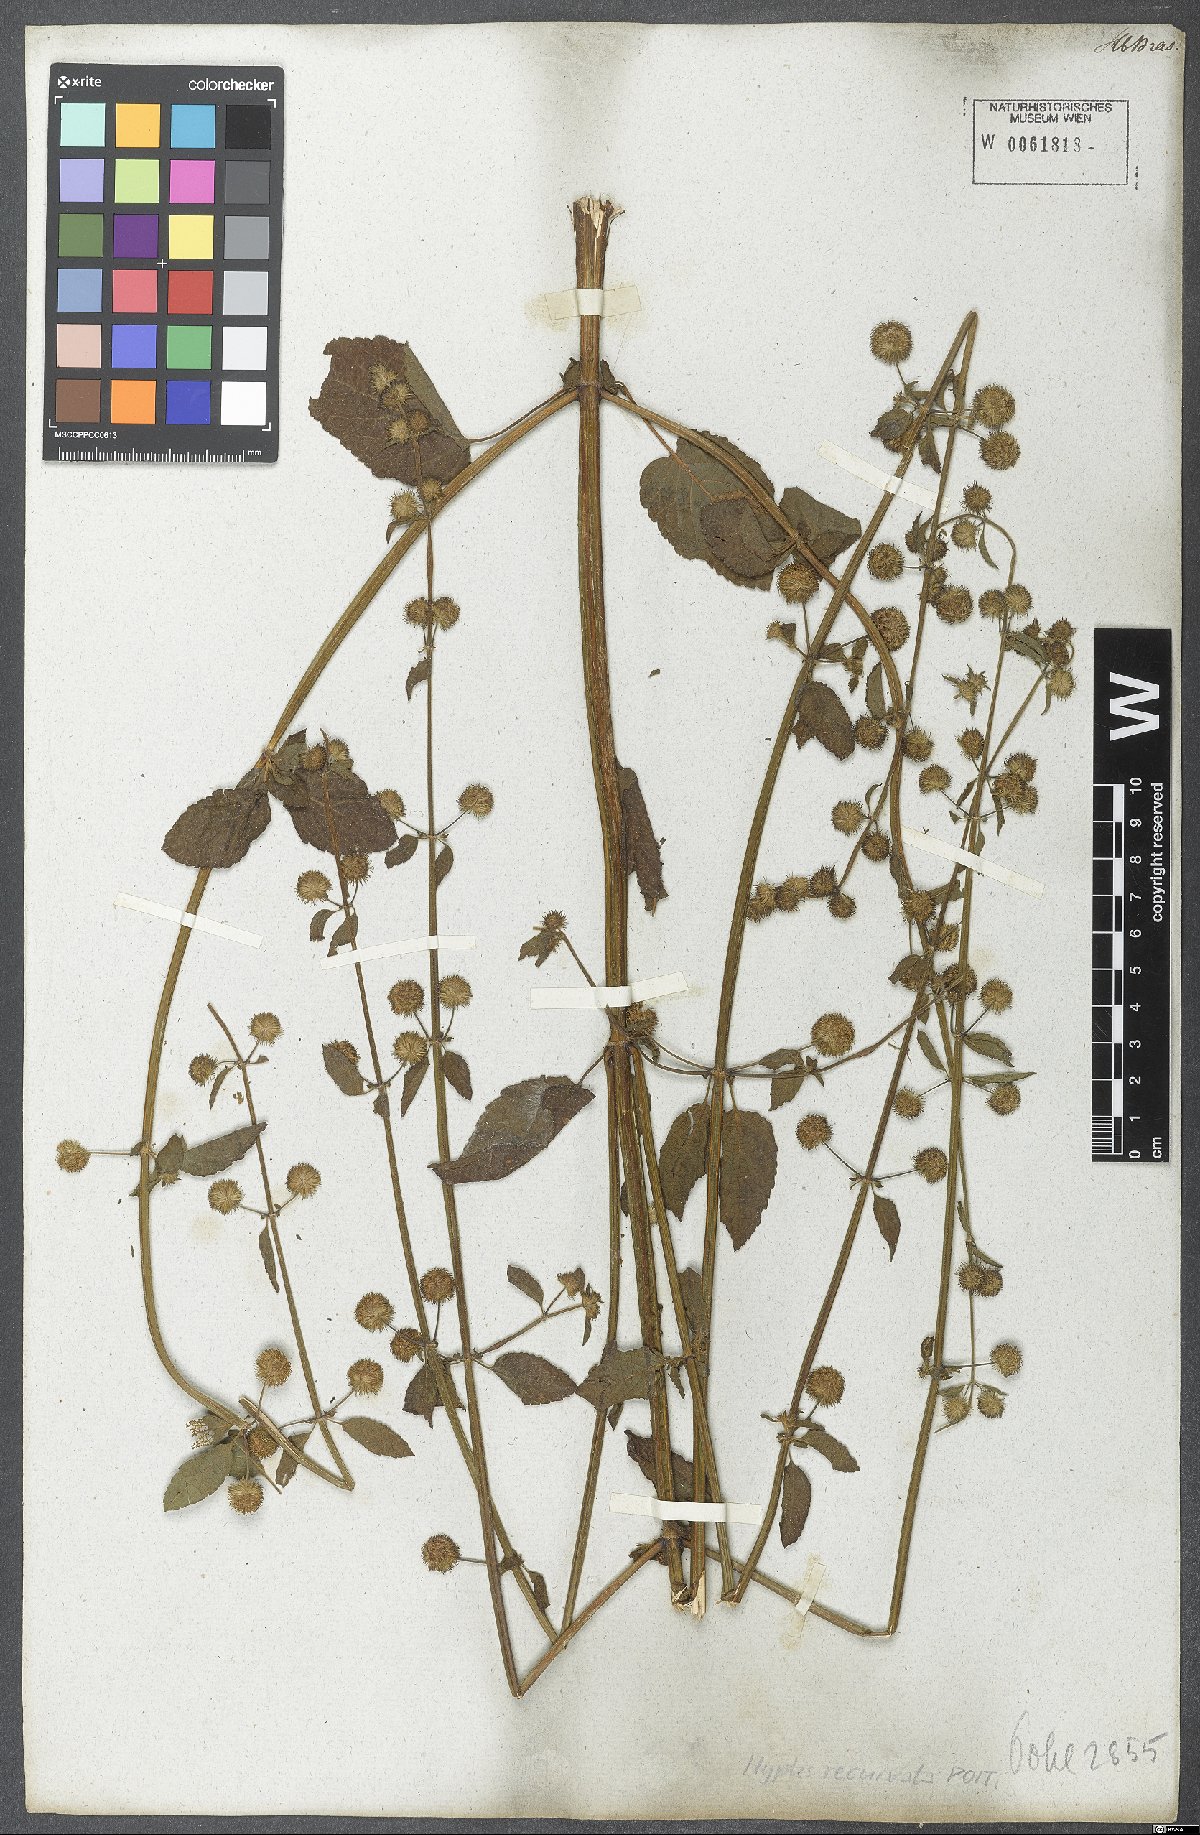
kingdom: Plantae
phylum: Tracheophyta
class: Magnoliopsida
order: Lamiales
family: Lamiaceae
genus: Hyptis
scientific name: Hyptis recurvata
